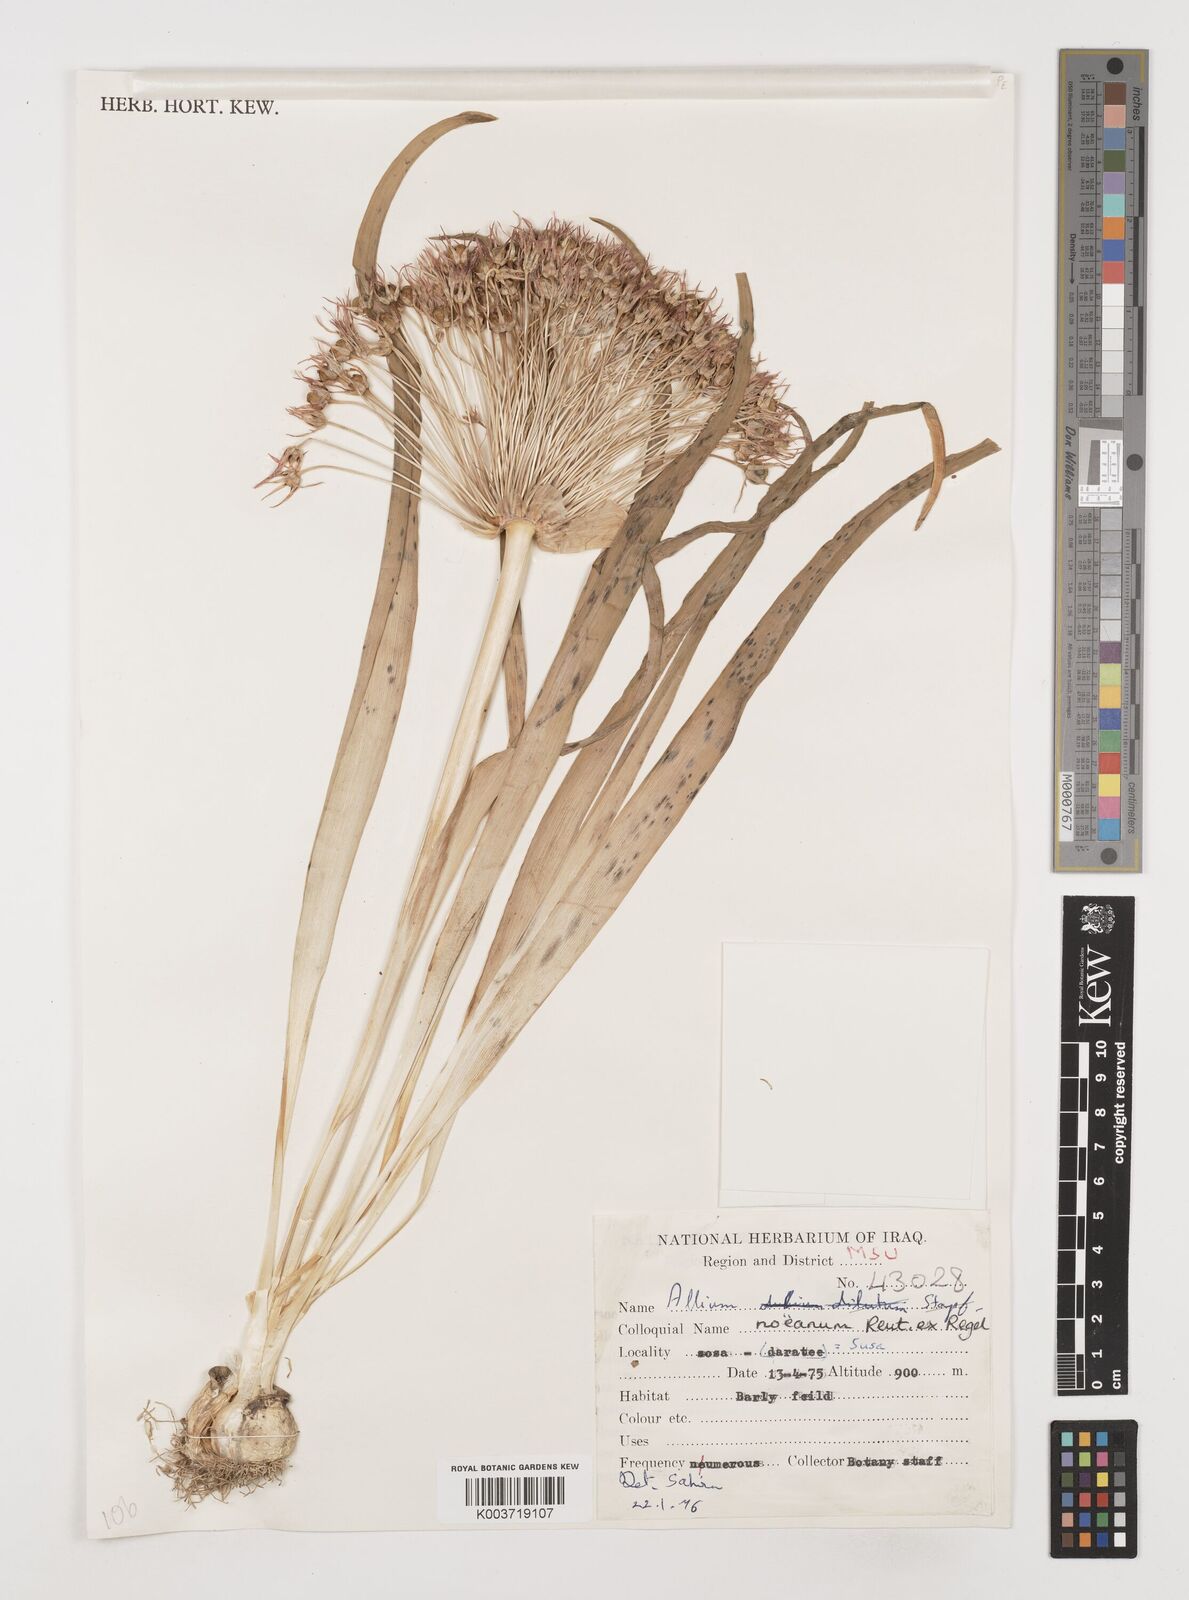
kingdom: Plantae
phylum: Tracheophyta
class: Liliopsida
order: Asparagales
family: Amaryllidaceae
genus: Allium
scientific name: Allium noeanum
